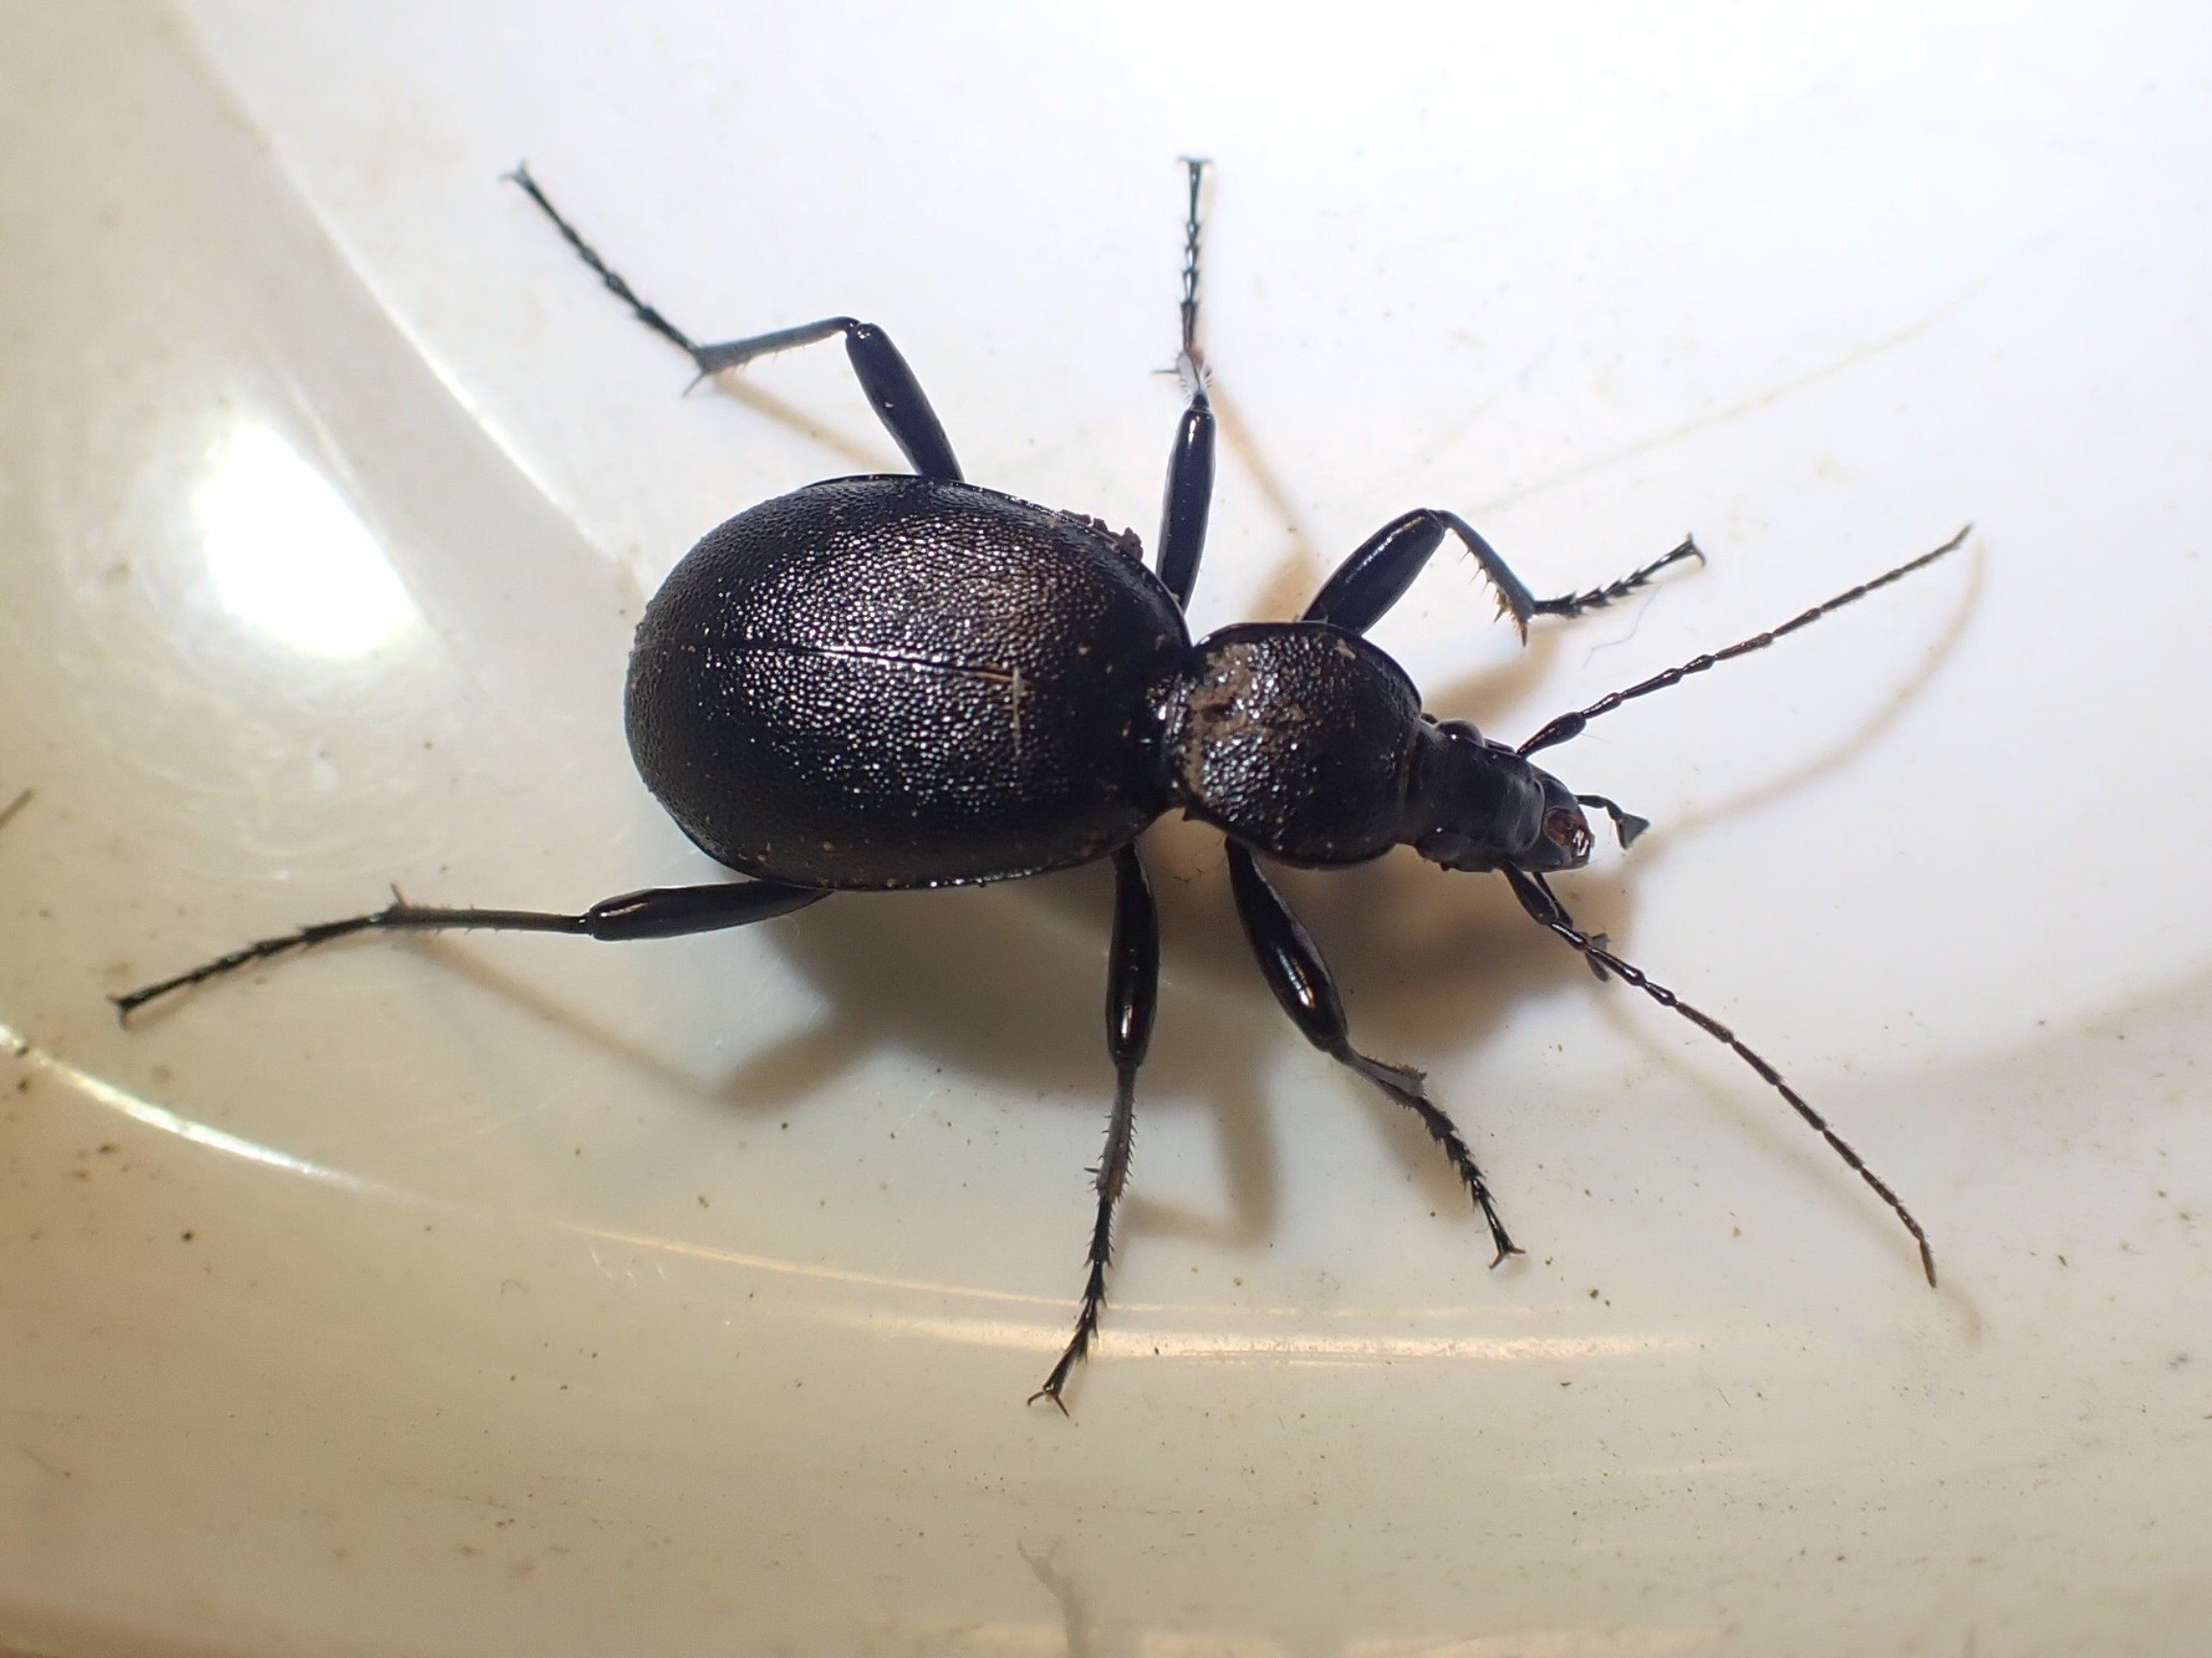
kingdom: Animalia
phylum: Arthropoda
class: Insecta
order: Coleoptera
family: Carabidae
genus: Cychrus
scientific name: Cychrus caraboides
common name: Sneglerøver
